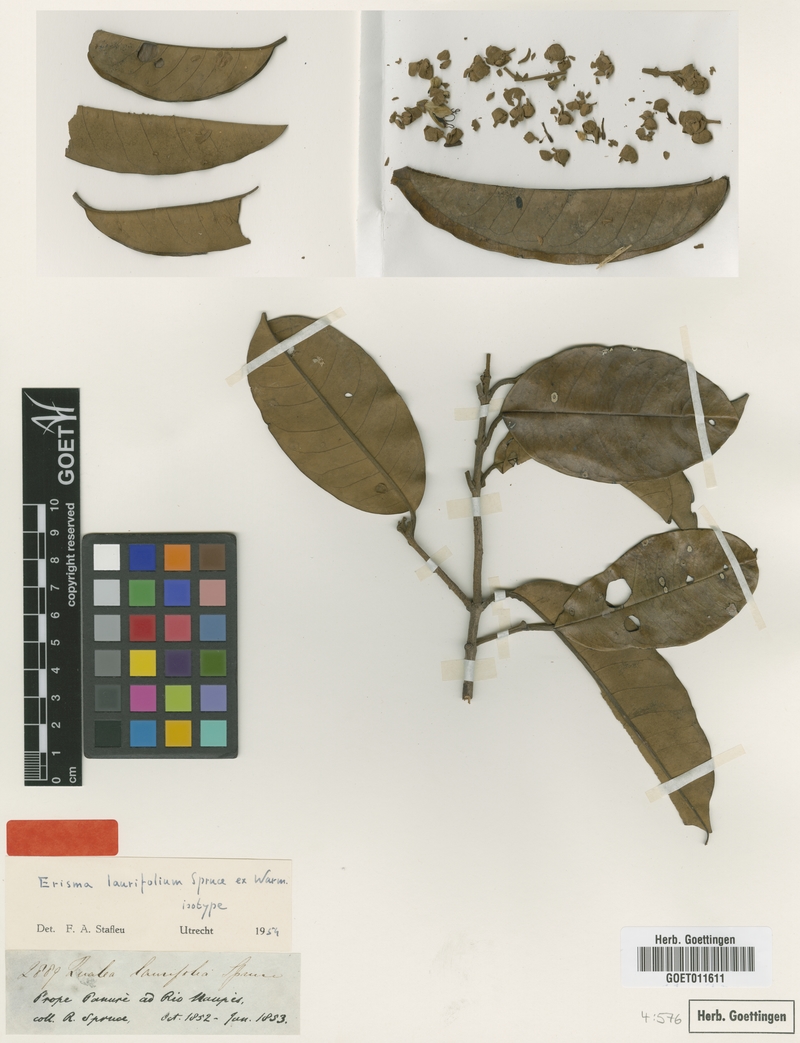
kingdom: Plantae
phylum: Tracheophyta
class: Magnoliopsida
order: Myrtales
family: Vochysiaceae
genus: Erisma
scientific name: Erisma laurifolium
